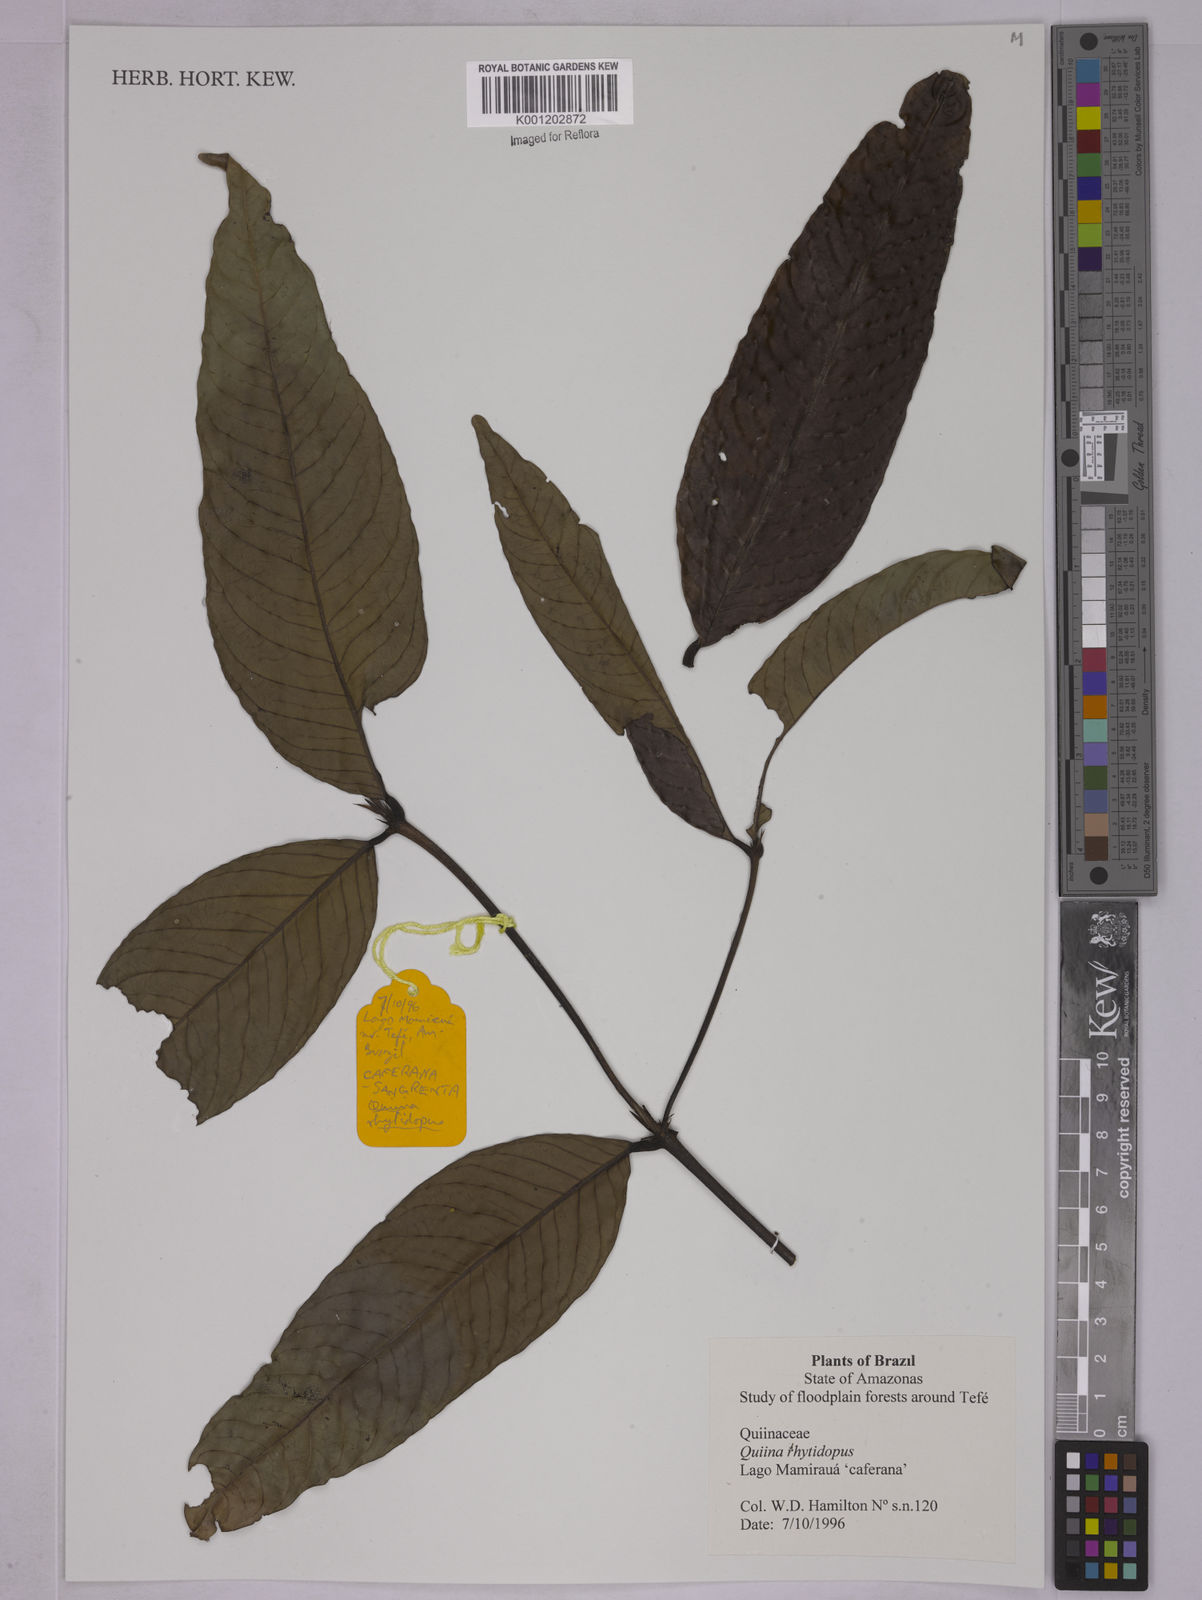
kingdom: Plantae
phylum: Tracheophyta
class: Magnoliopsida
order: Malpighiales
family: Quiinaceae
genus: Quiina
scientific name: Quiina rhytidopus
